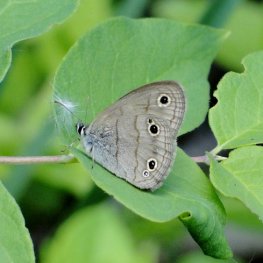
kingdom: Animalia
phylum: Arthropoda
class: Insecta
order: Lepidoptera
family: Nymphalidae
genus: Euptychia
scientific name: Euptychia cymela
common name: Little Wood Satyr
